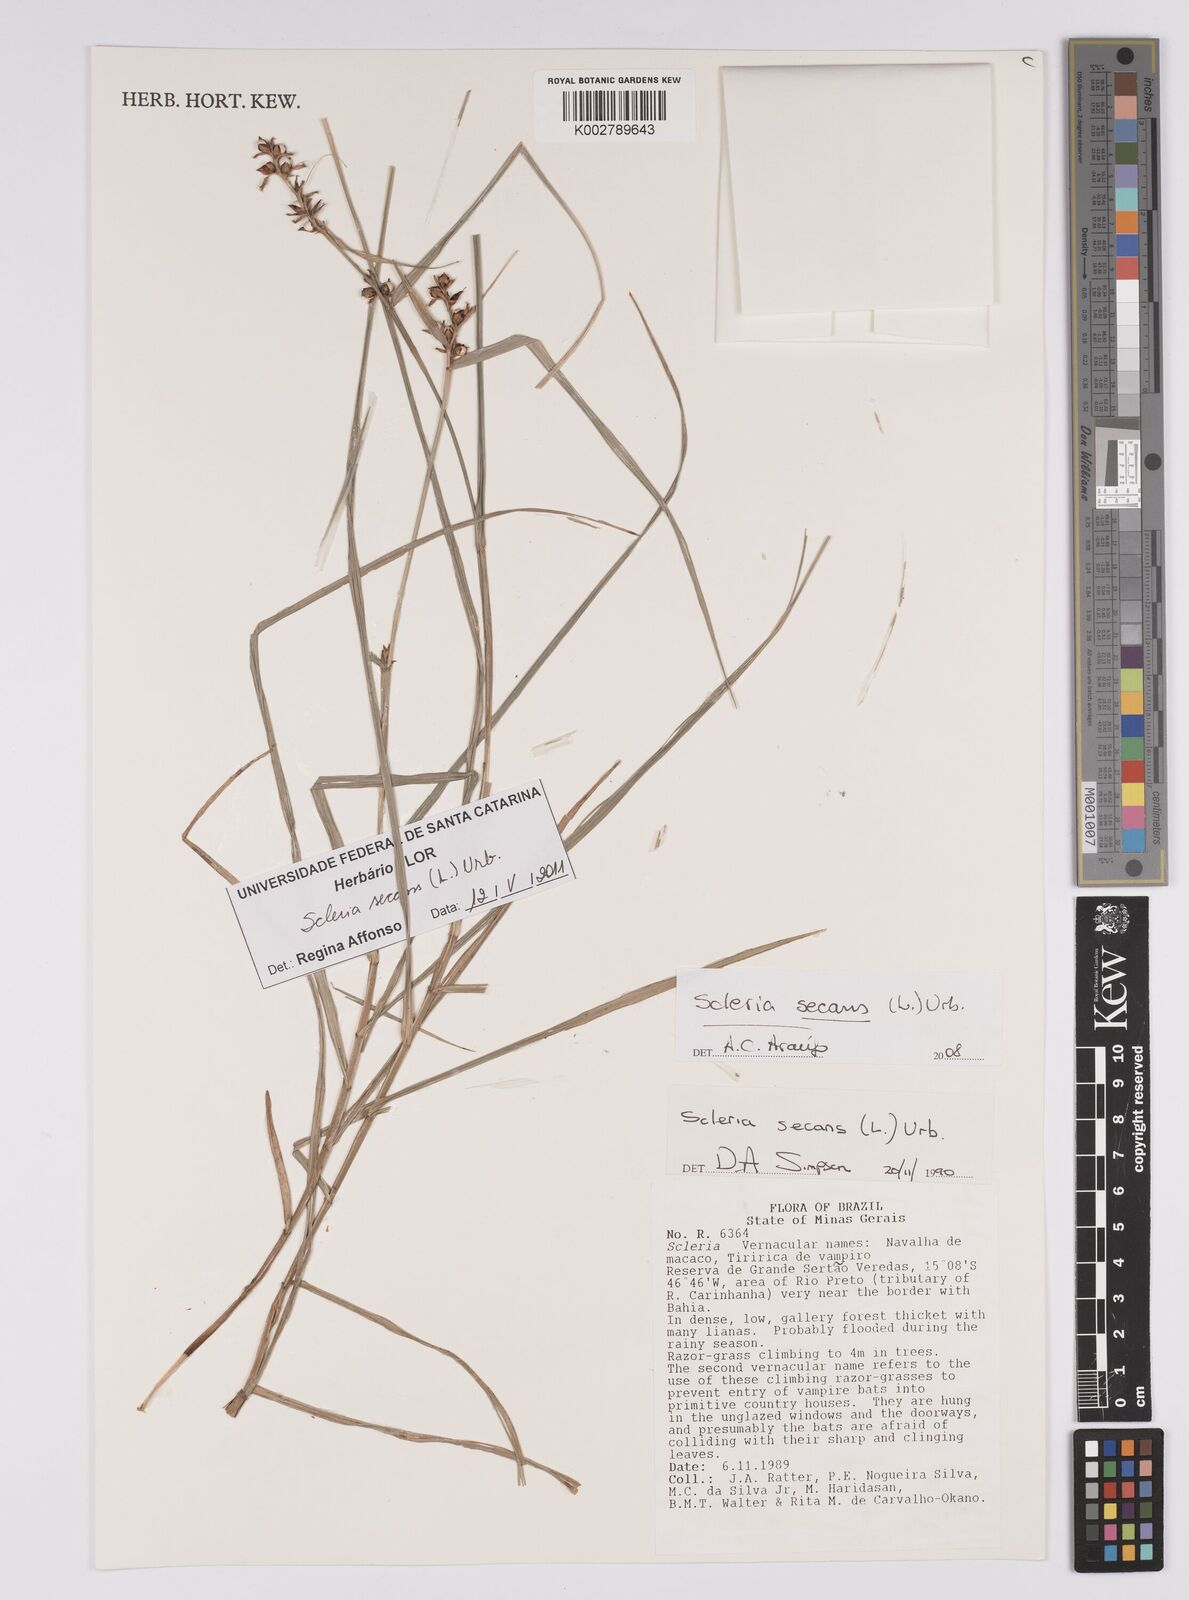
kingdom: Plantae
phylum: Tracheophyta
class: Liliopsida
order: Poales
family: Cyperaceae
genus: Scleria
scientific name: Scleria secans
